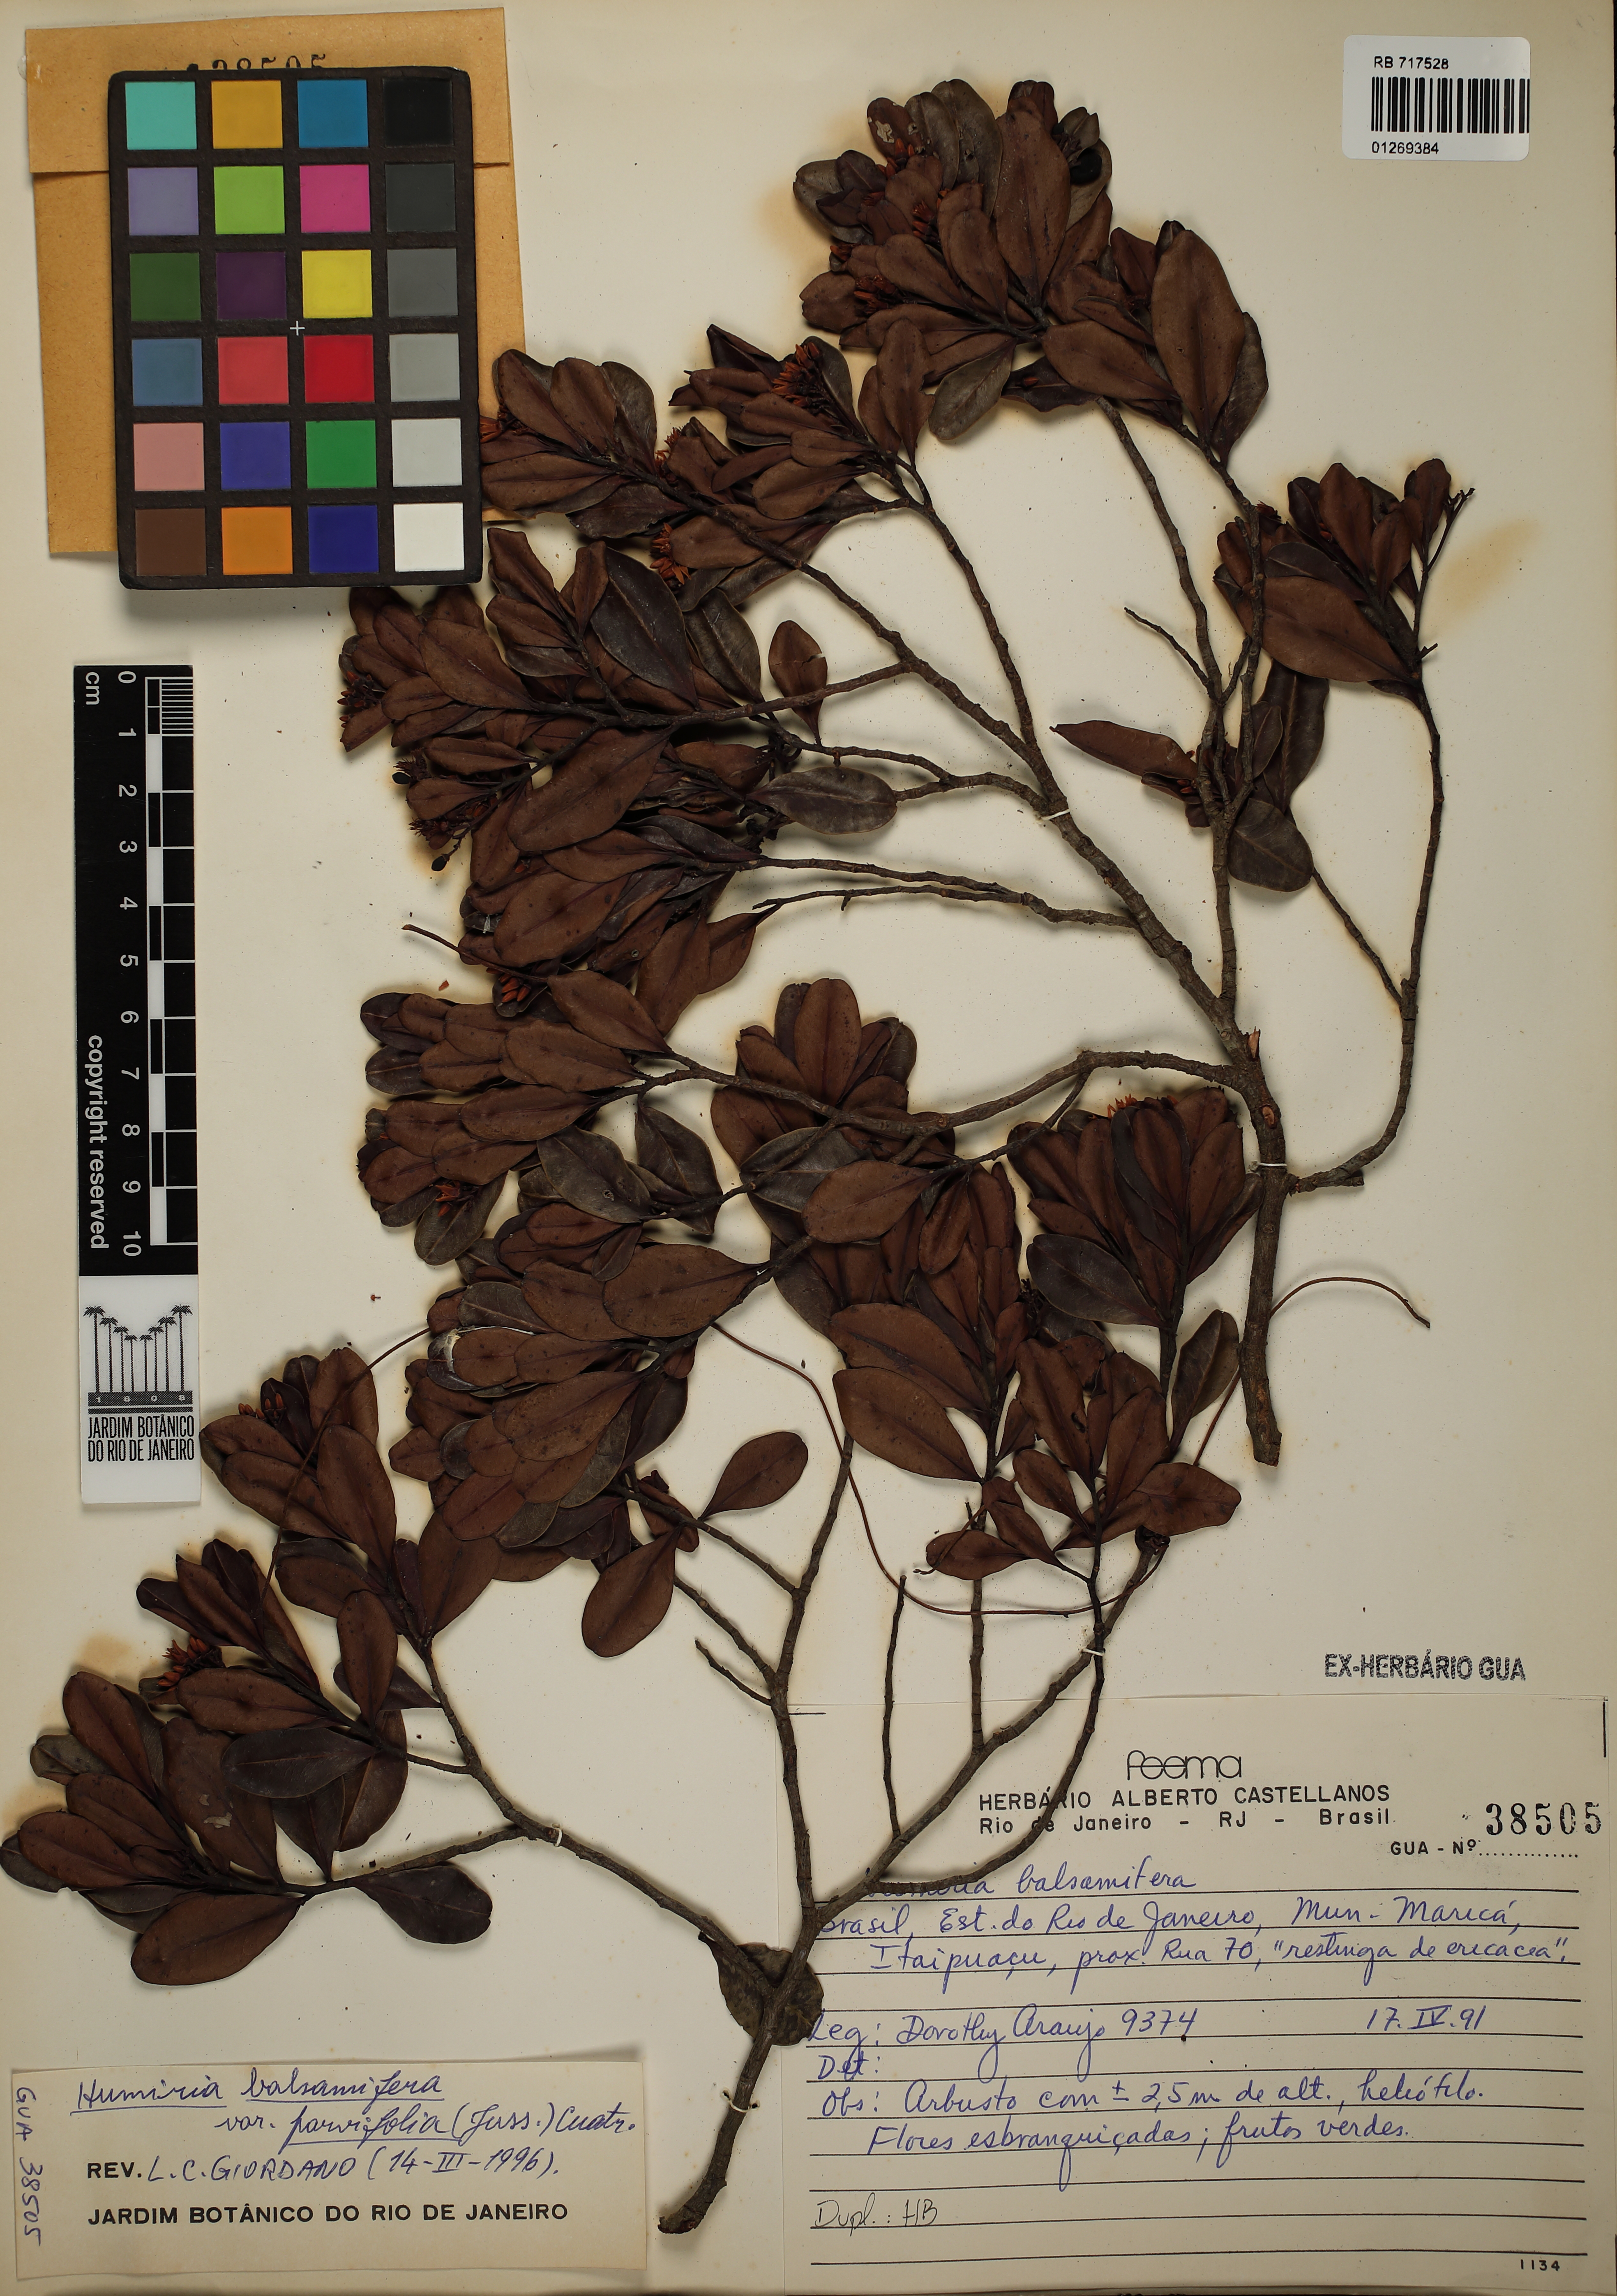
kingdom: Plantae
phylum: Tracheophyta
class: Magnoliopsida
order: Malpighiales
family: Humiriaceae
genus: Humiria
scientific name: Humiria parvifolia
